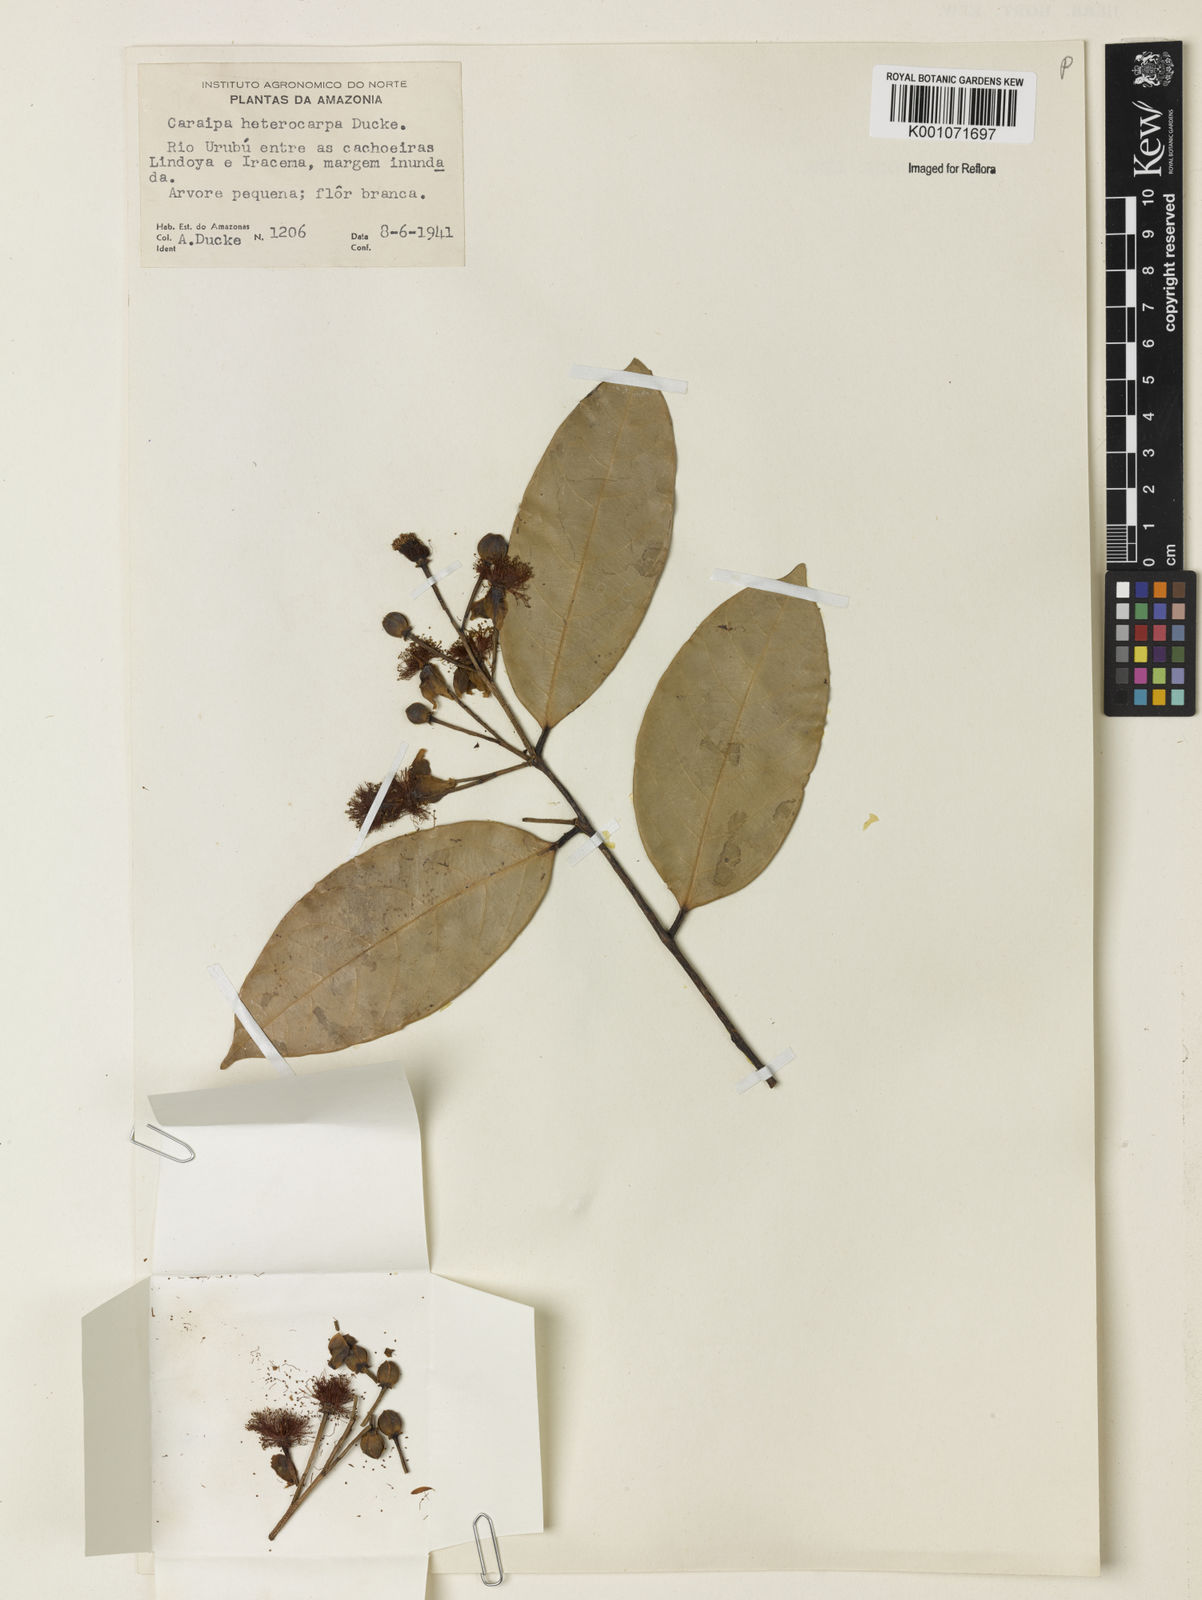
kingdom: Plantae
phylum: Tracheophyta
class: Magnoliopsida
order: Malpighiales
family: Calophyllaceae
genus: Caraipa
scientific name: Caraipa heterocarpa
